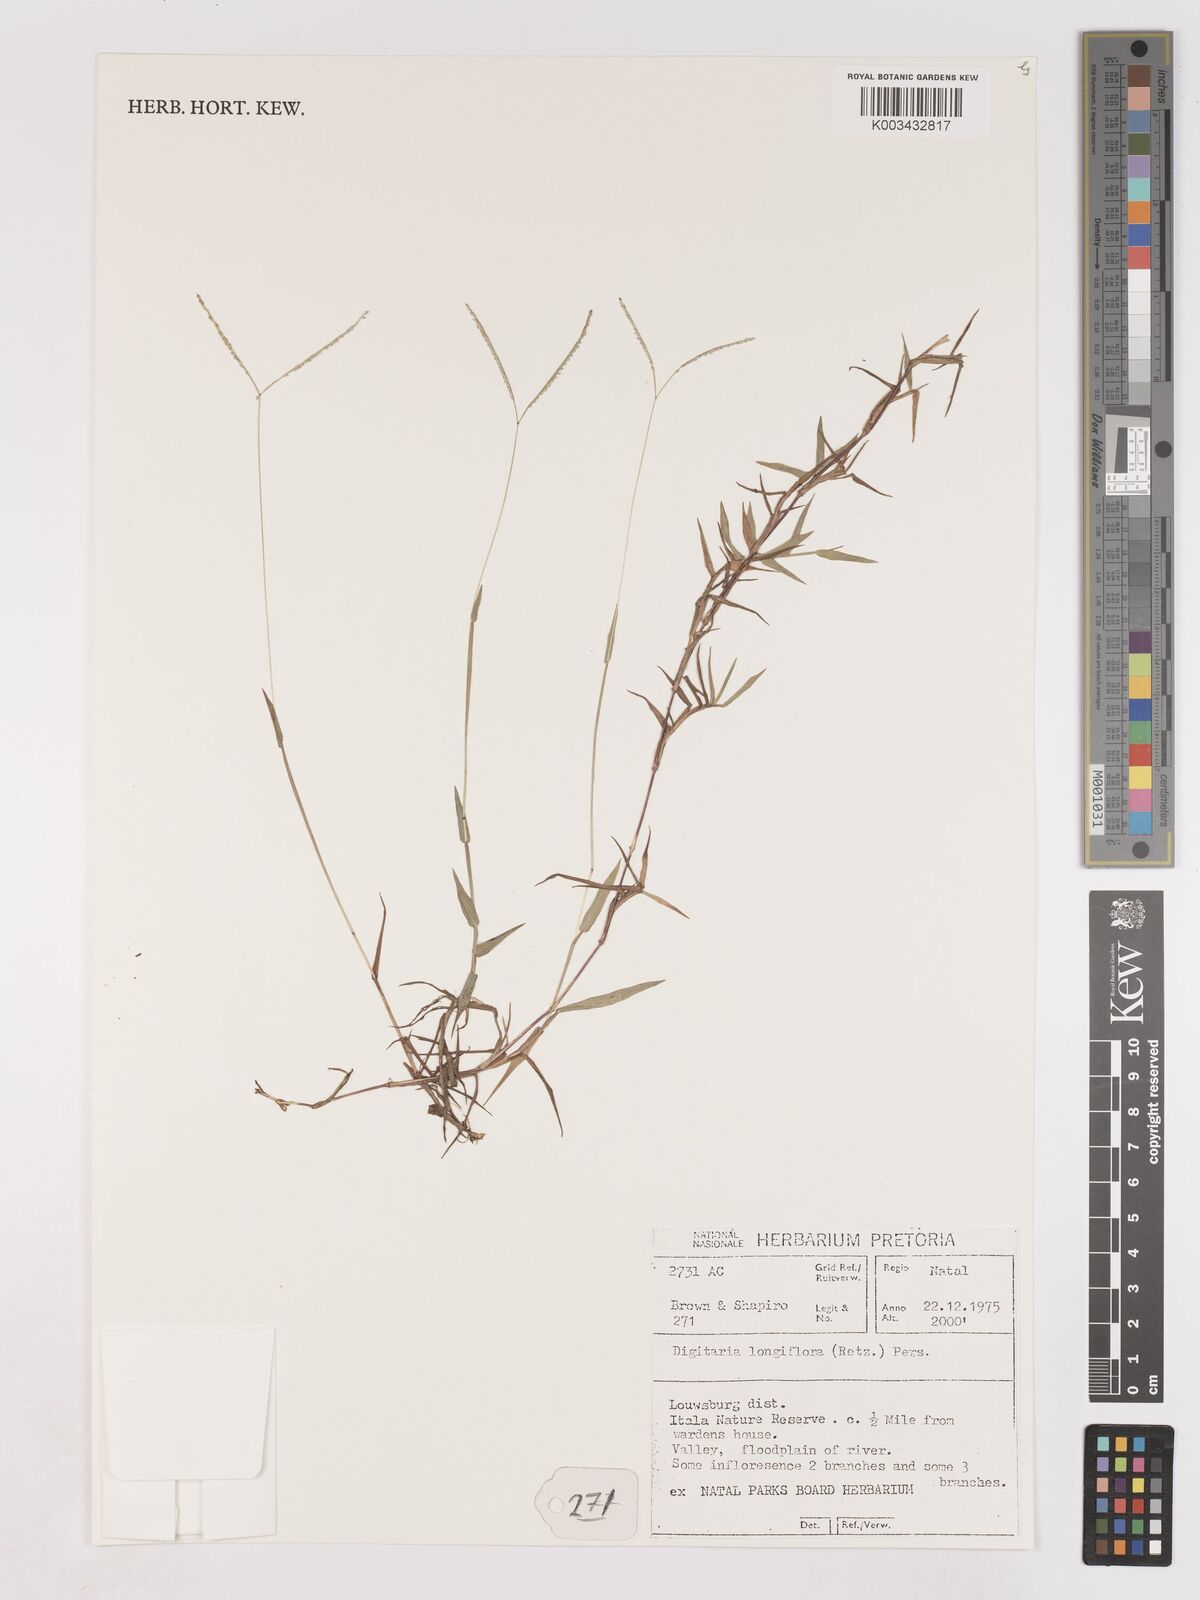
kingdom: Plantae
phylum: Tracheophyta
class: Liliopsida
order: Poales
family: Poaceae
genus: Digitaria
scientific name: Digitaria longiflora
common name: Wire crabgrass
